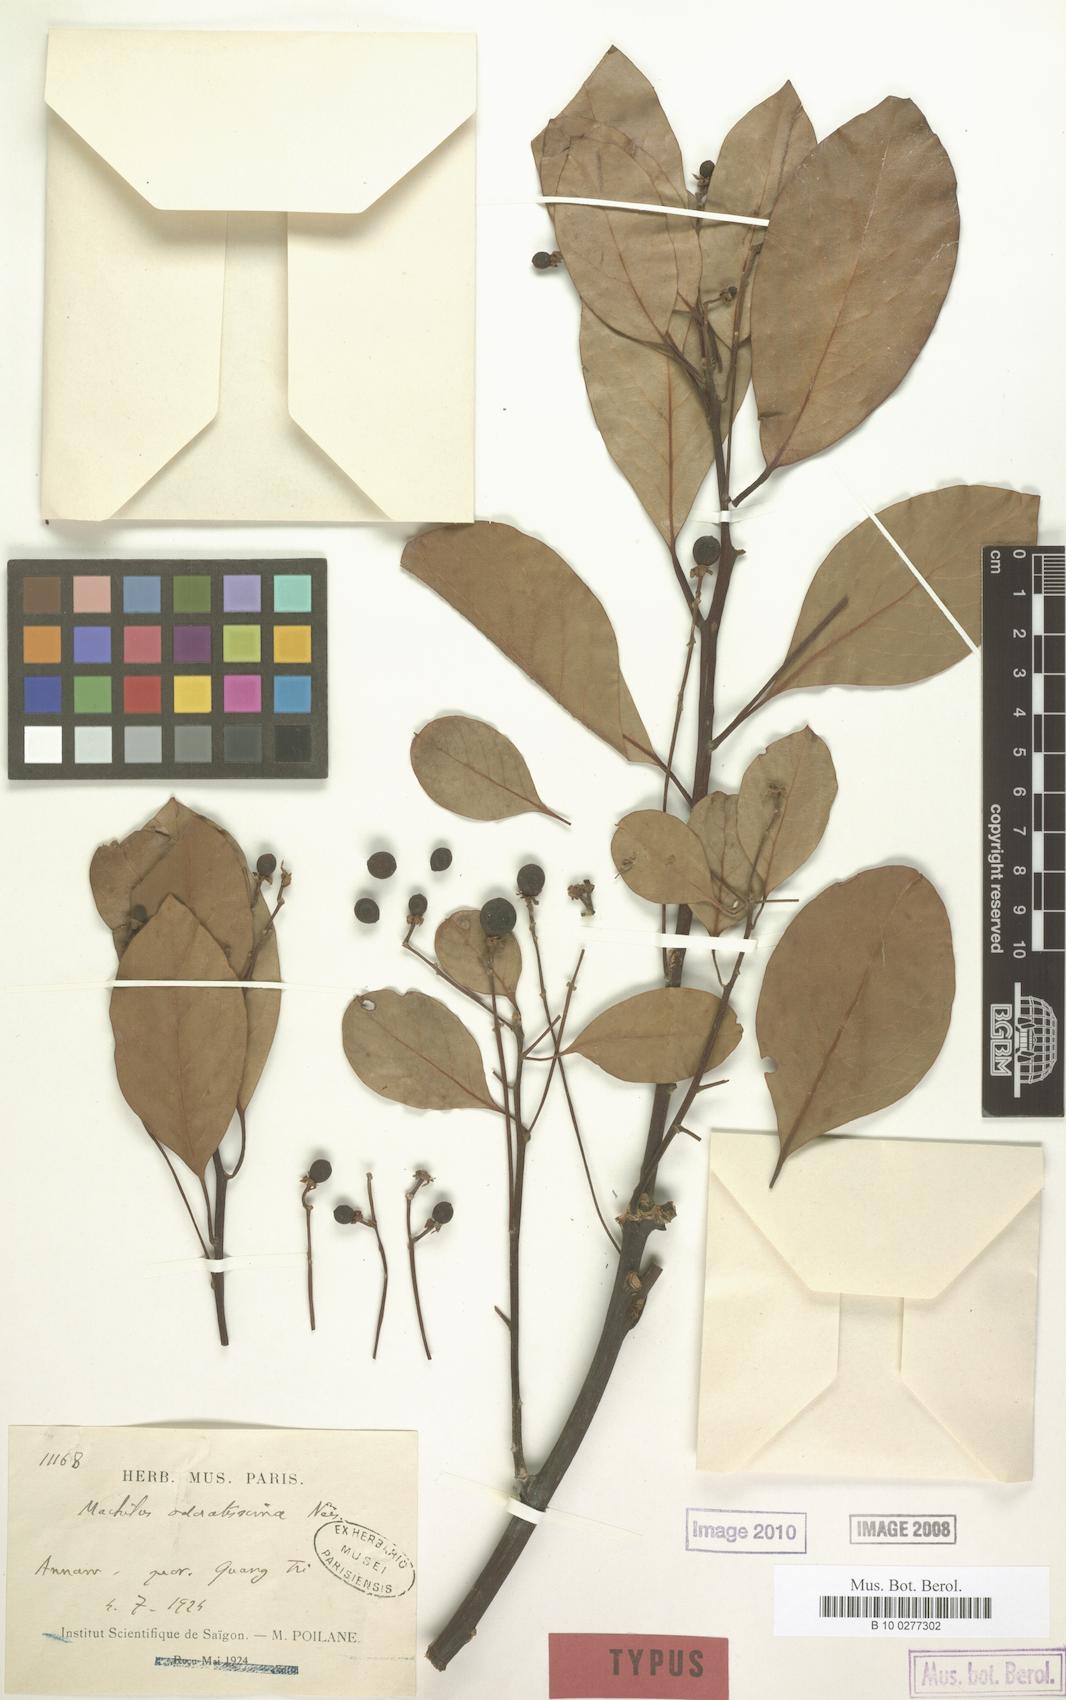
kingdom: Plantae
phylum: Tracheophyta
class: Magnoliopsida
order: Laurales
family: Lauraceae
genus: Machilus
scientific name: Machilus odoratissimus
